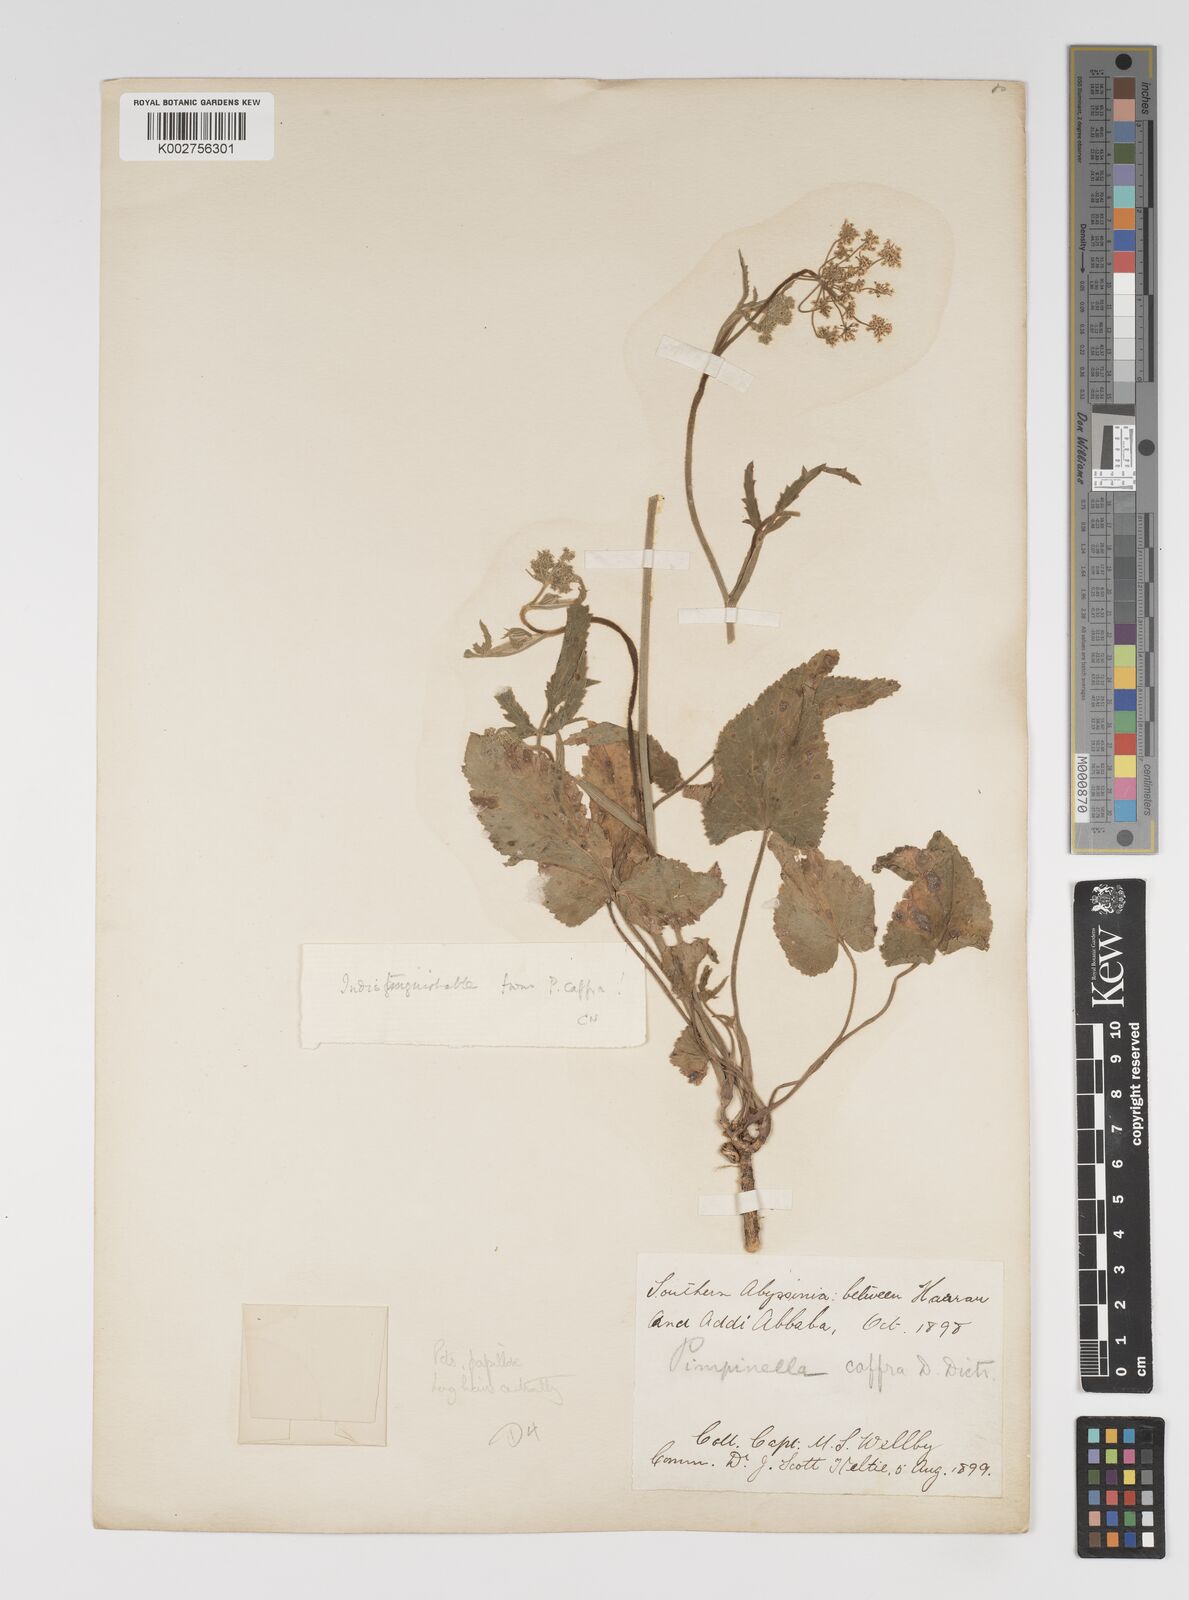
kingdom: Plantae
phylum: Tracheophyta
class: Magnoliopsida
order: Apiales
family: Apiaceae
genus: Pimpinella
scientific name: Pimpinella peregrina
